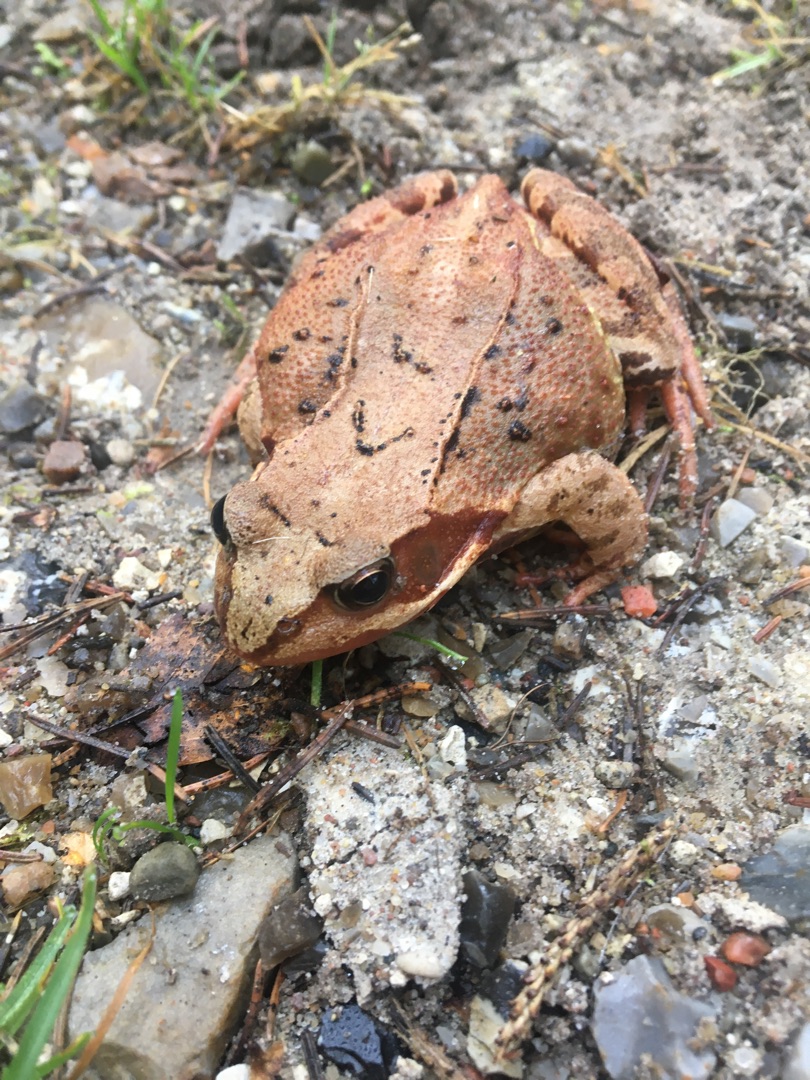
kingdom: Animalia
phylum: Chordata
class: Amphibia
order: Anura
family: Ranidae
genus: Rana
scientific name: Rana temporaria
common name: Butsnudet frø
